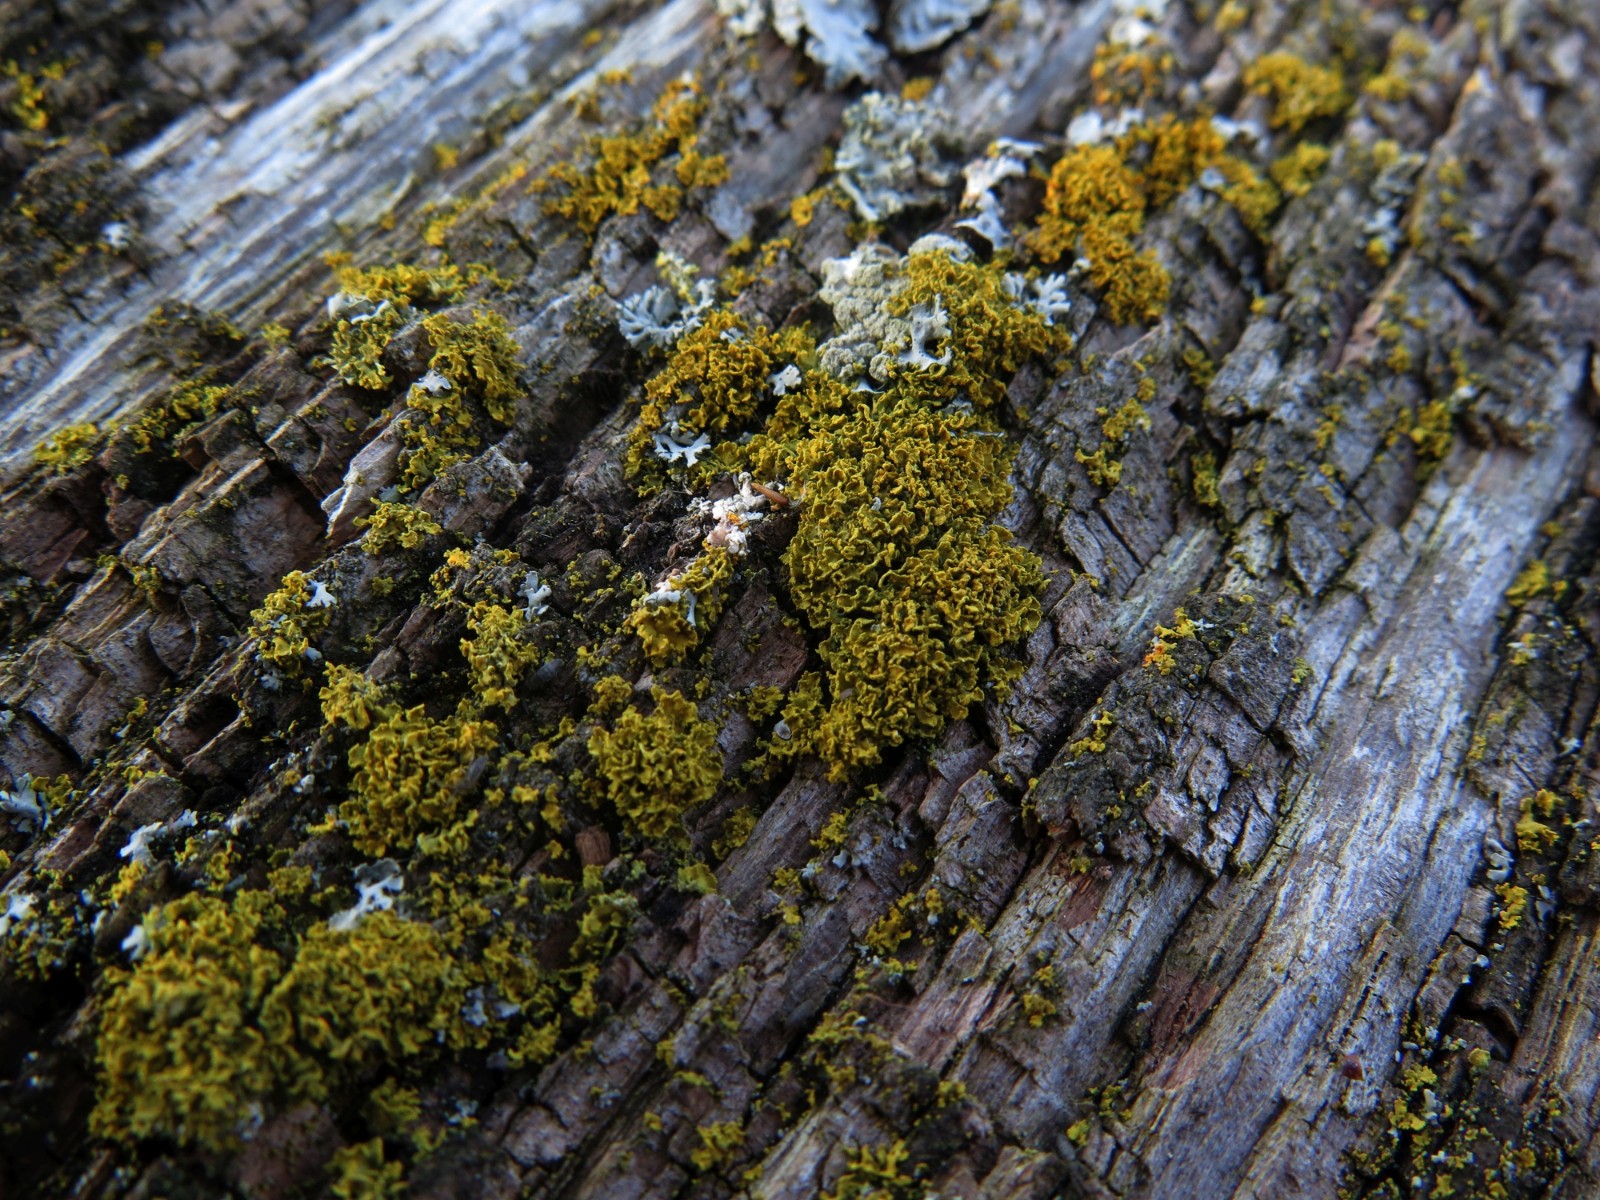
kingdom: Fungi
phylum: Ascomycota
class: Lecanoromycetes
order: Teloschistales
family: Teloschistaceae
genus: Polycauliona
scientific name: Polycauliona candelaria
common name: tue-orangelav
